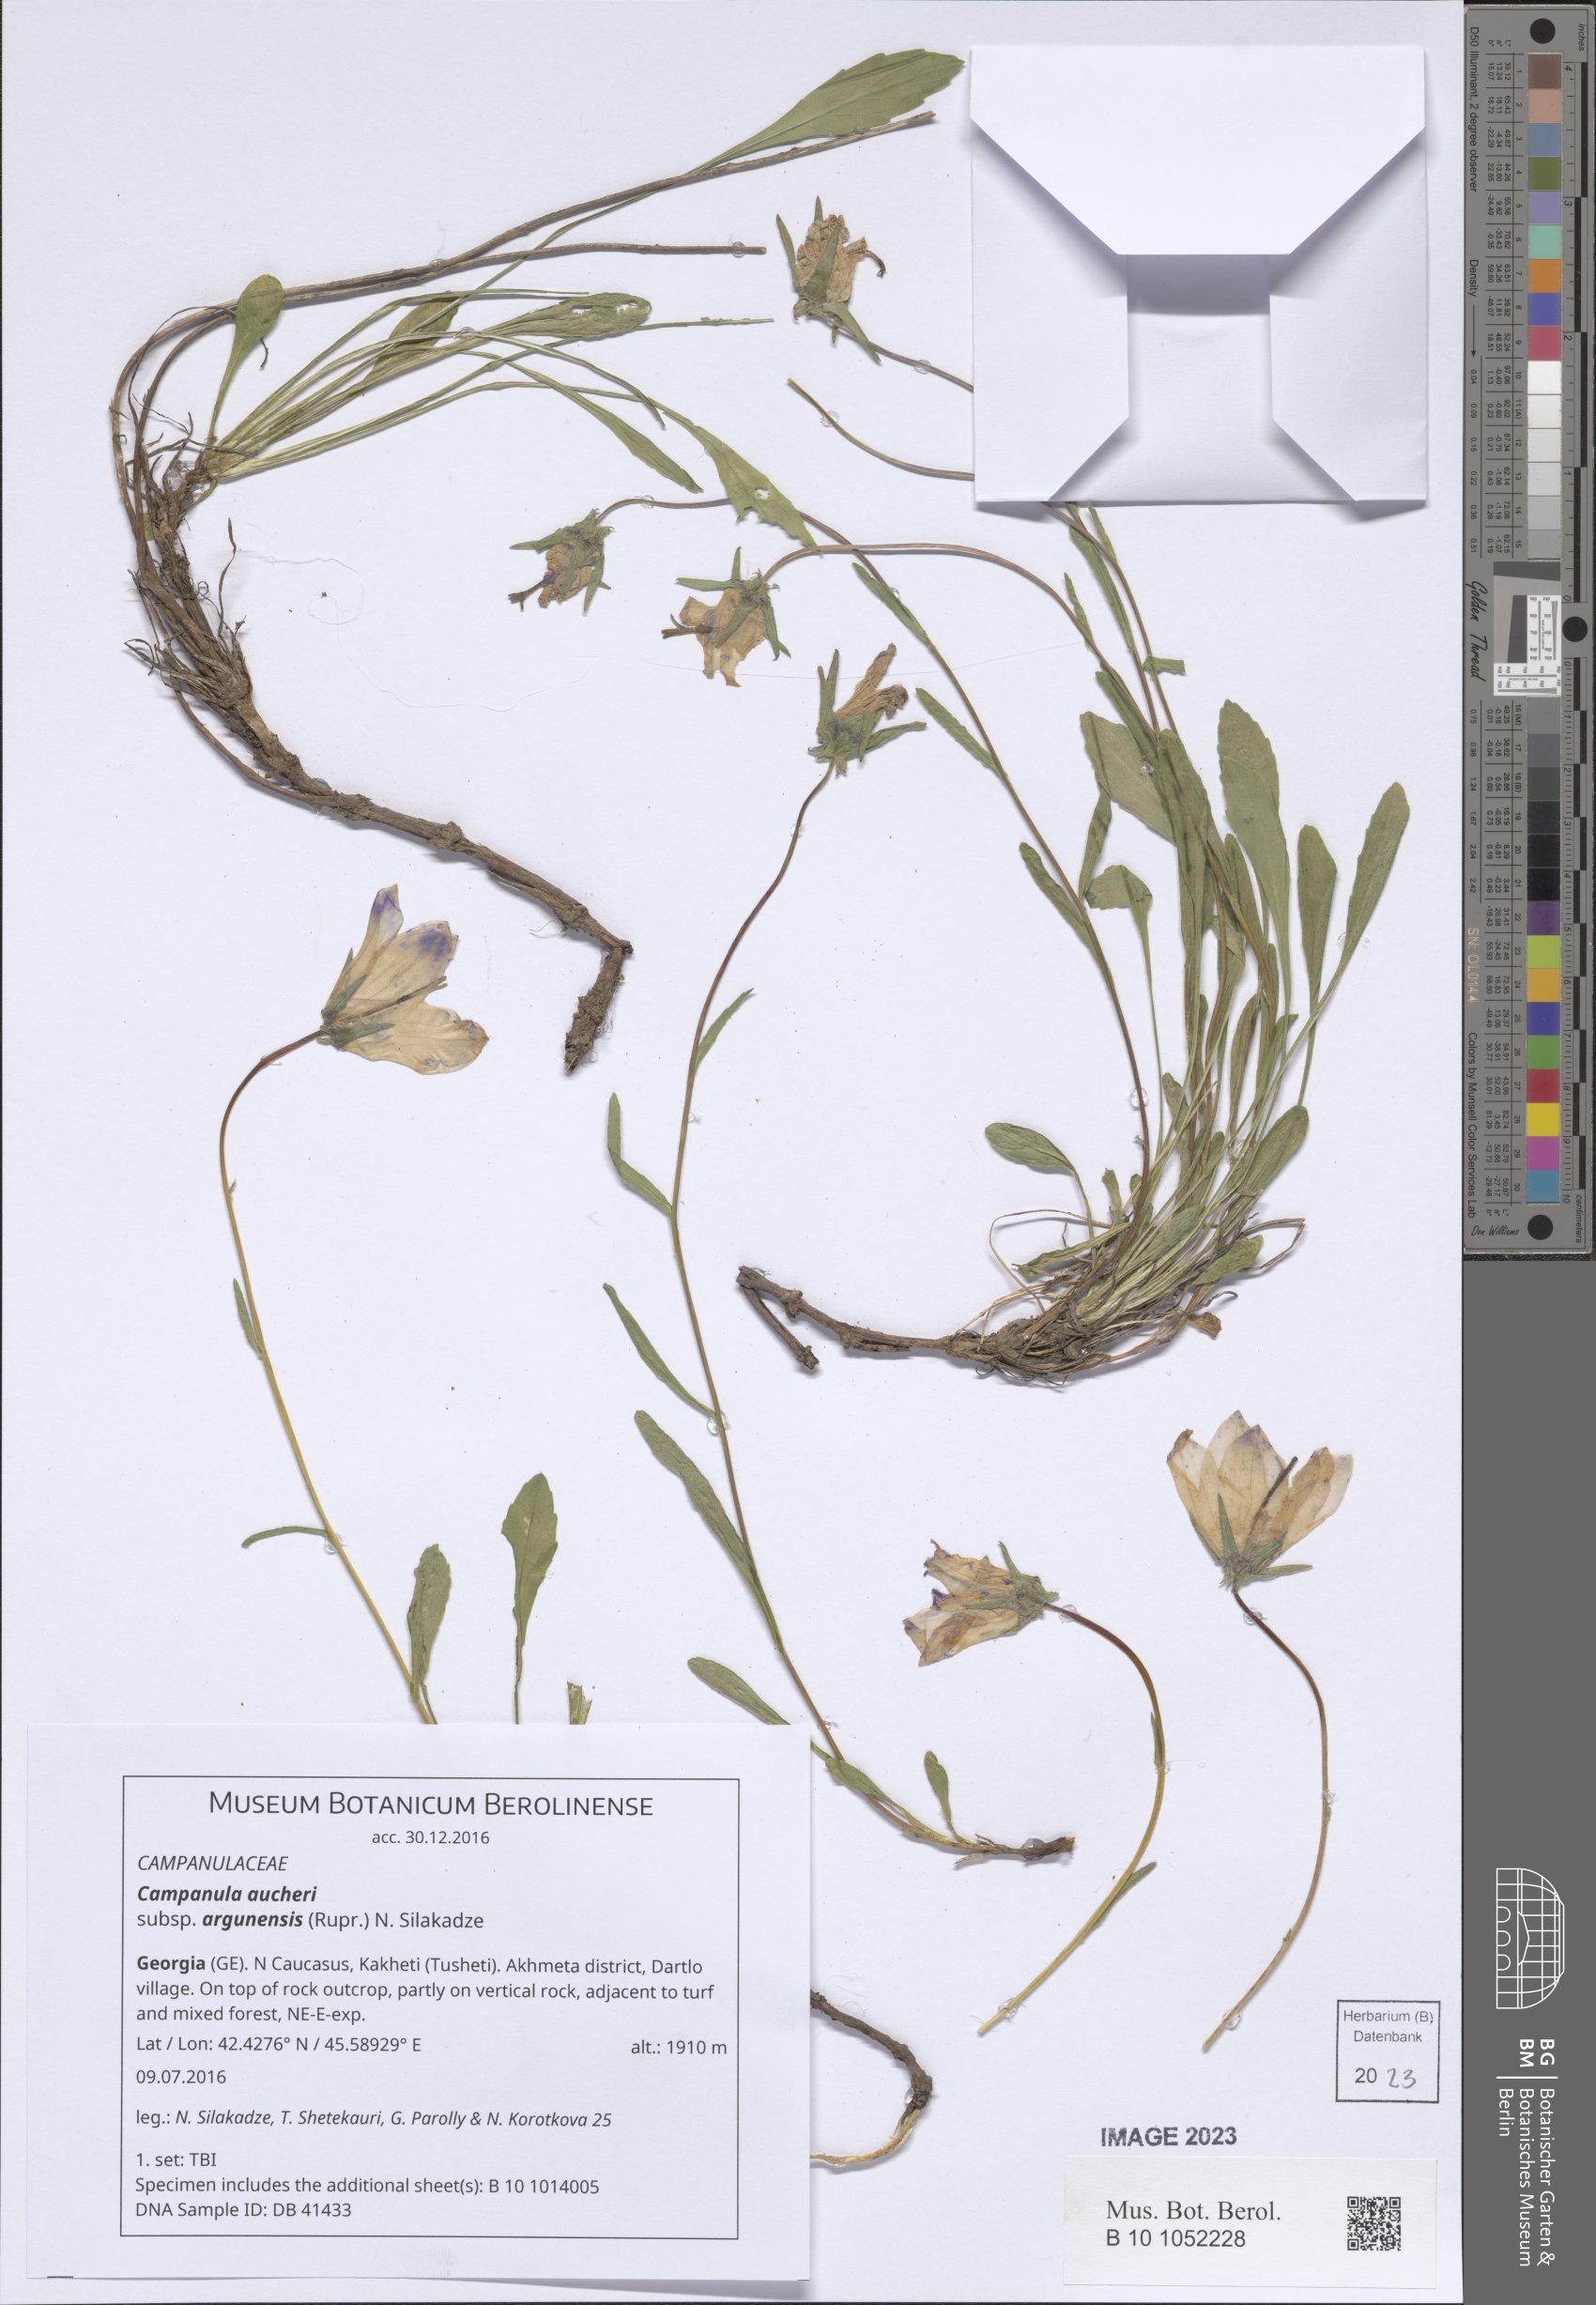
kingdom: Plantae
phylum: Tracheophyta
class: Magnoliopsida
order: Asterales
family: Campanulaceae
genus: Campanula
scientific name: Campanula saxifraga
